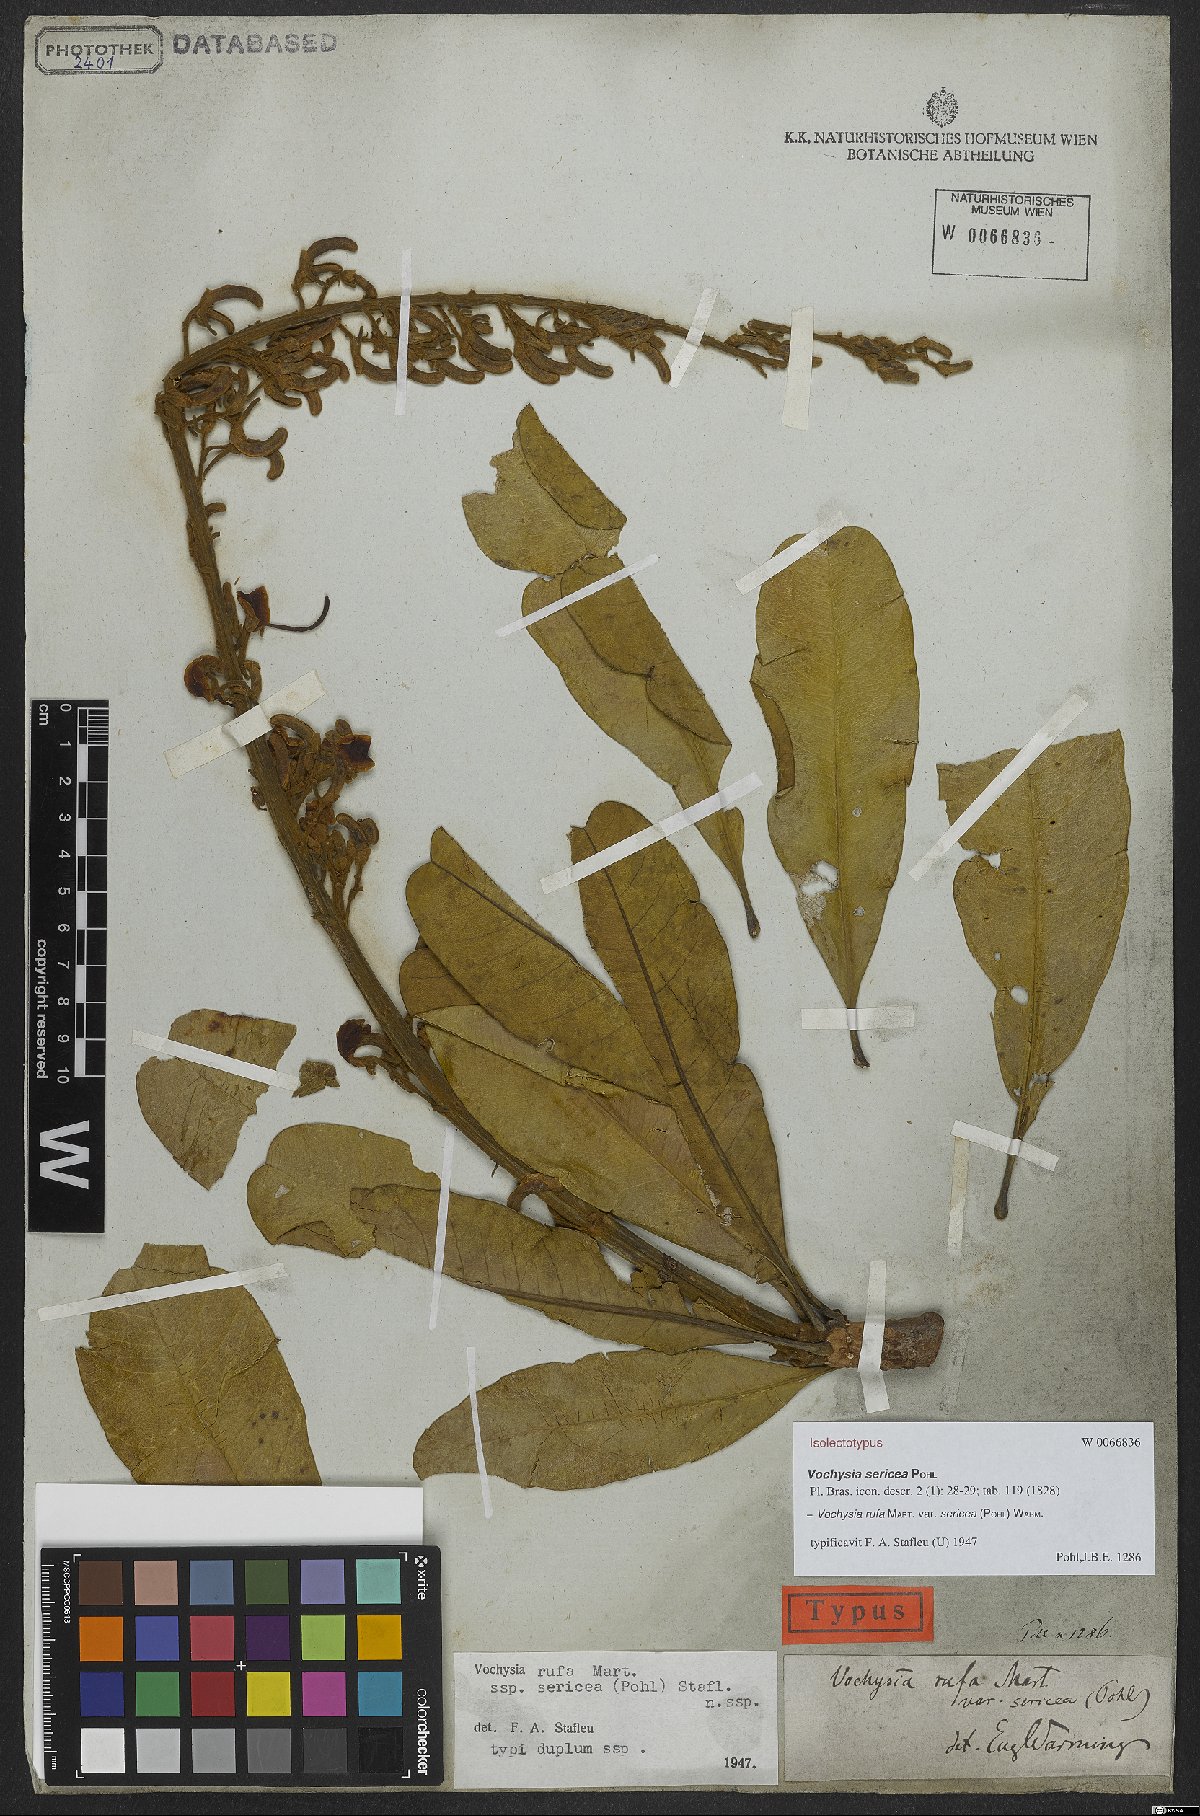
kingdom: Plantae
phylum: Tracheophyta
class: Magnoliopsida
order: Myrtales
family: Vochysiaceae
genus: Vochysia
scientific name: Vochysia rufa
